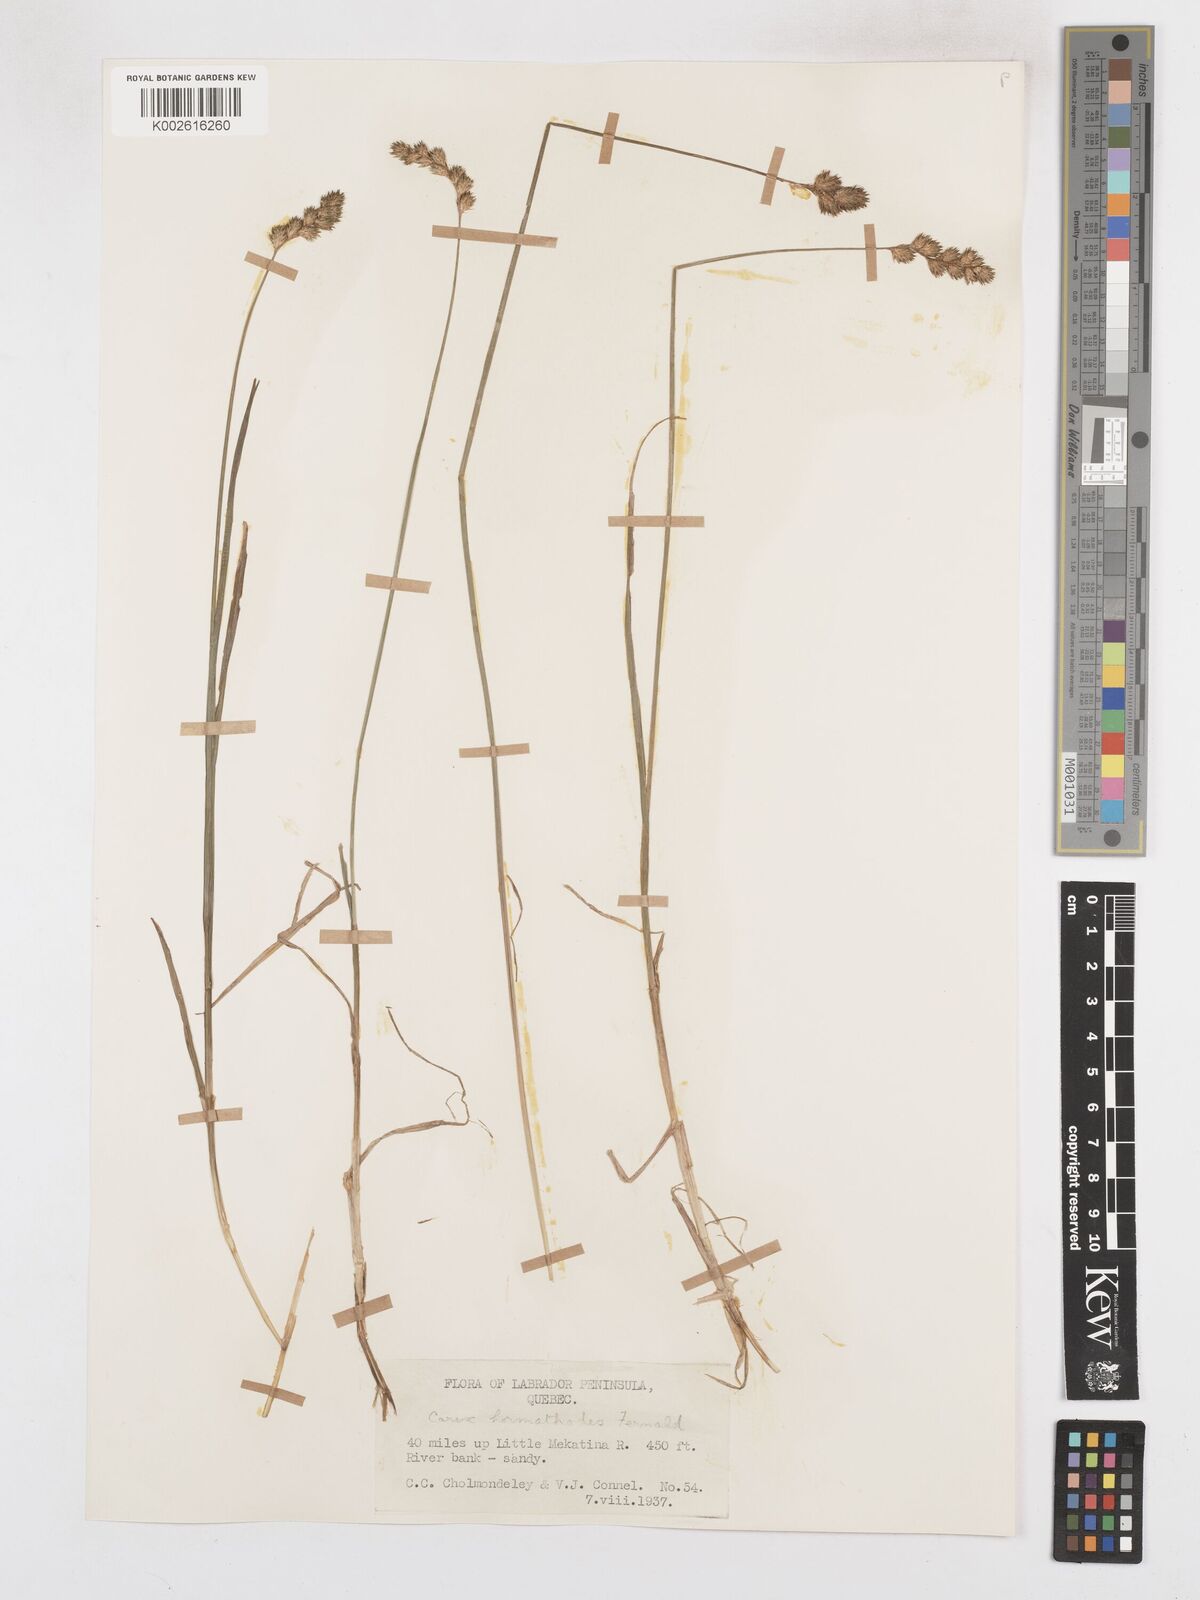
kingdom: Plantae
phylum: Tracheophyta
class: Liliopsida
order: Poales
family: Cyperaceae
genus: Carex
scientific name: Carex hormathodes
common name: Marsh straw sedge
